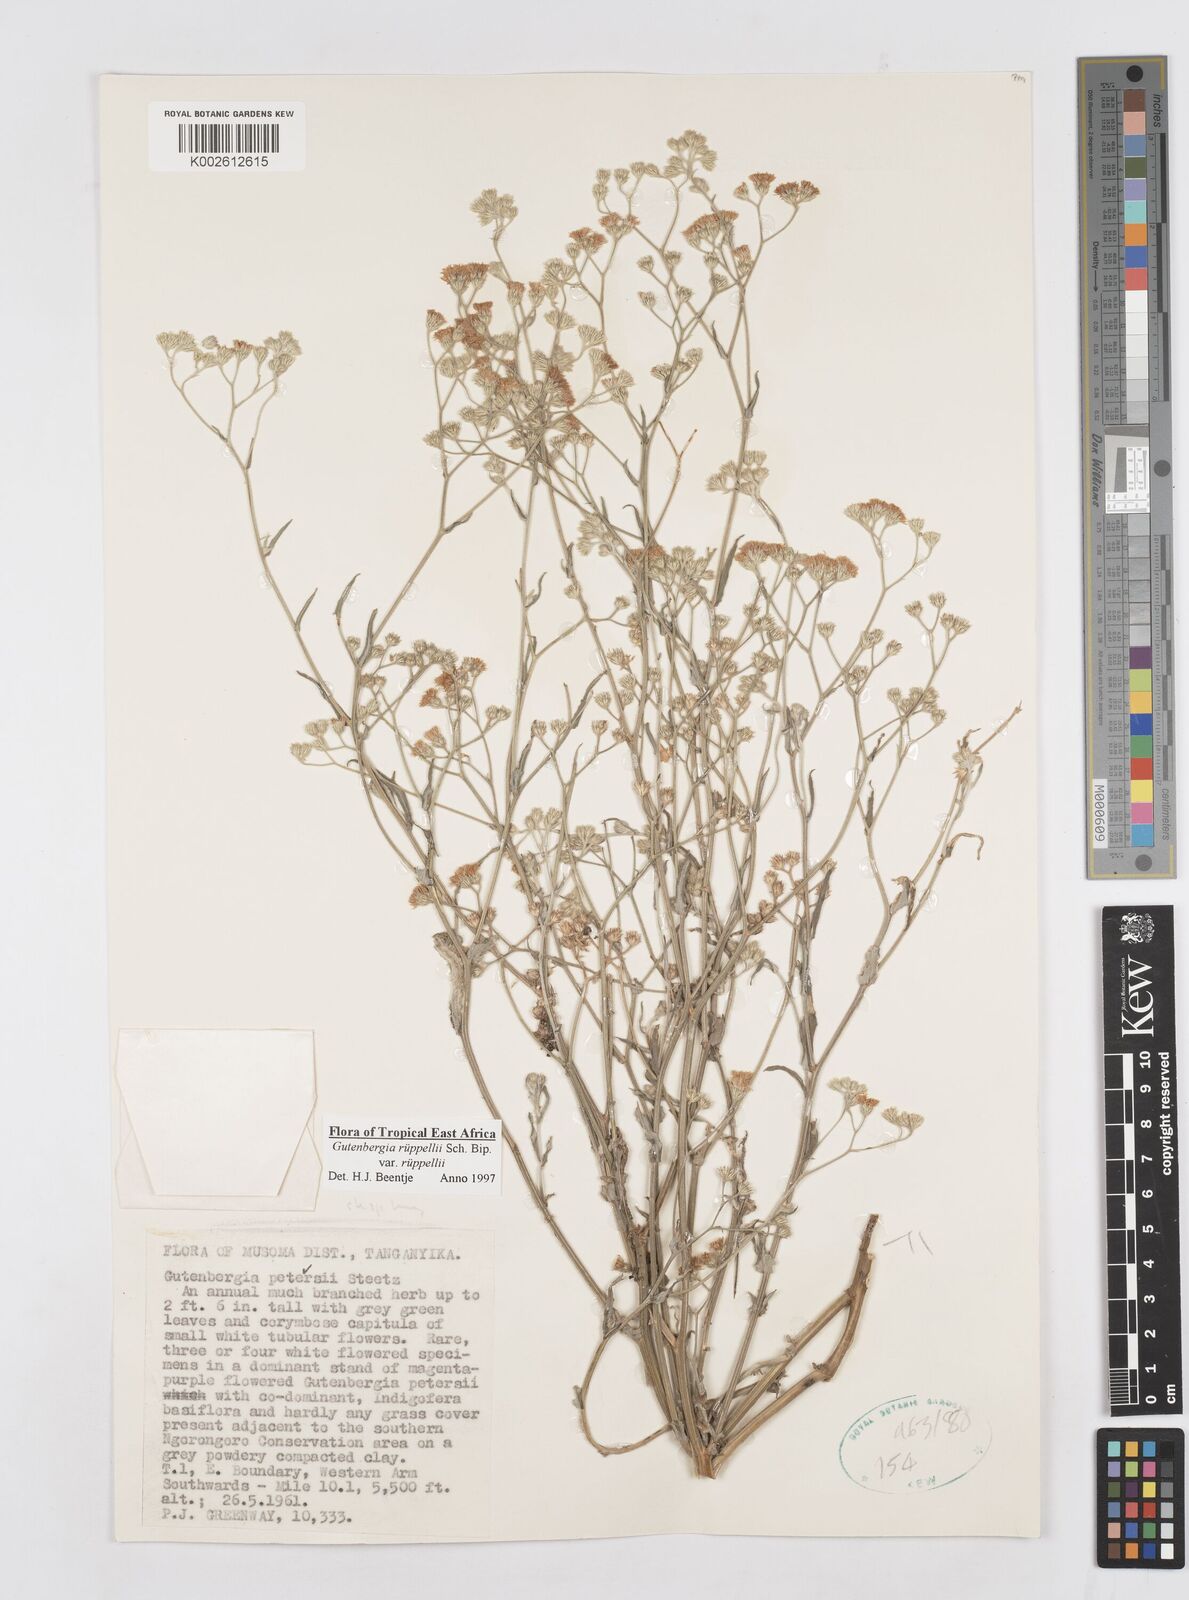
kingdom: Plantae
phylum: Tracheophyta
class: Magnoliopsida
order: Asterales
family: Asteraceae
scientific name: Asteraceae
